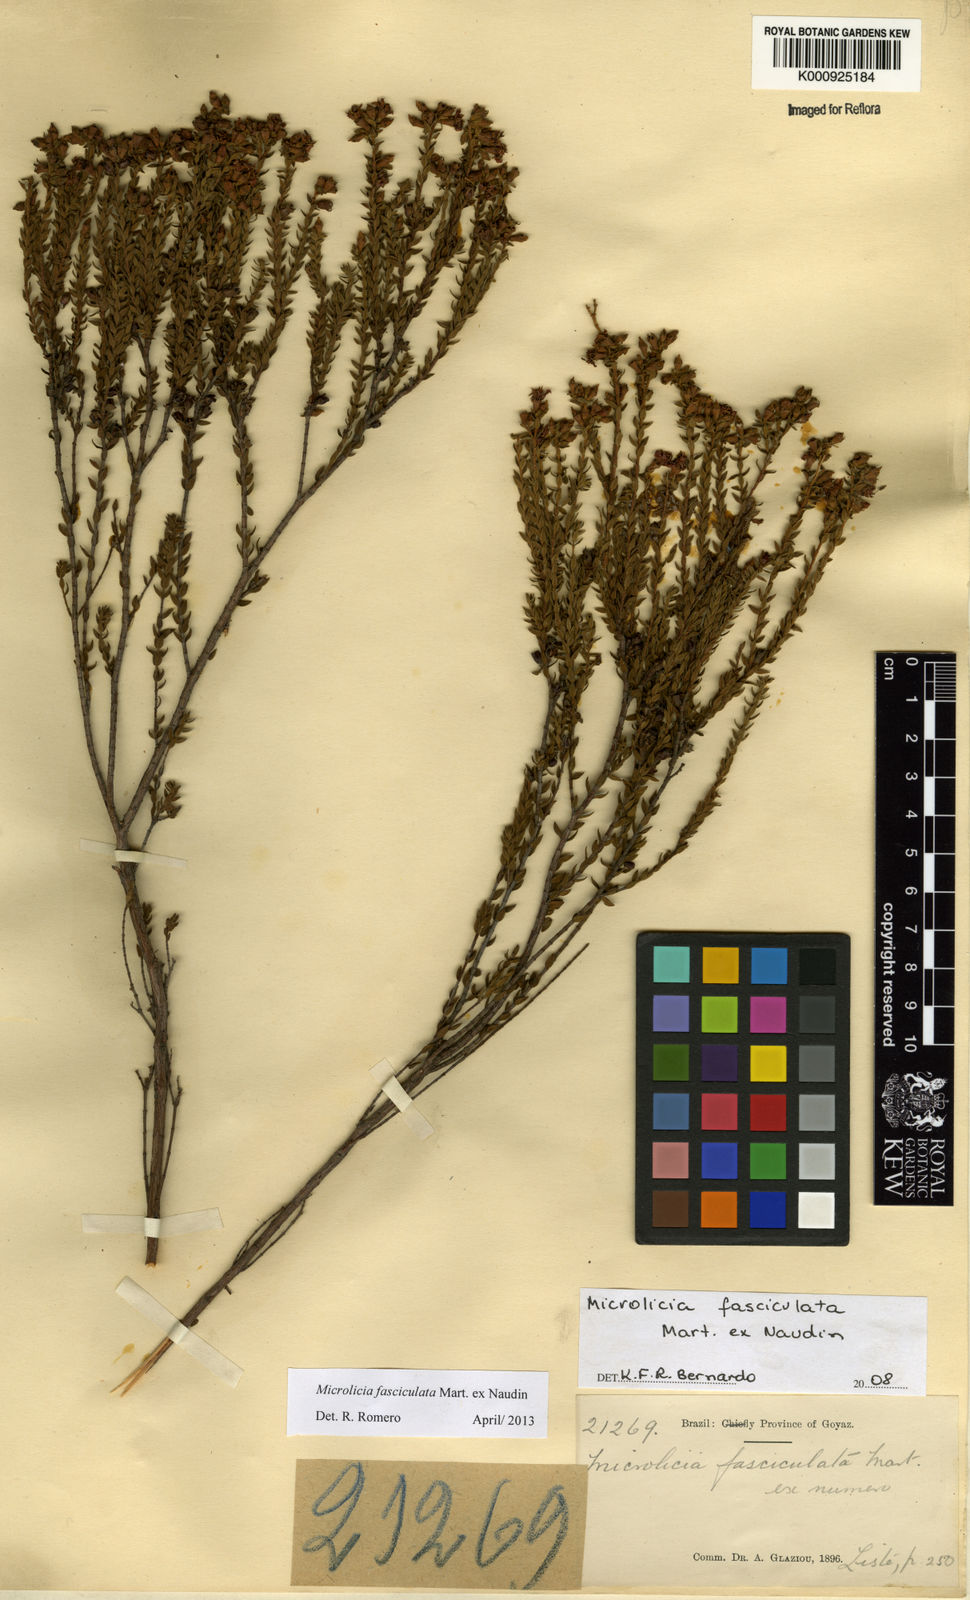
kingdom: Plantae
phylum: Tracheophyta
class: Magnoliopsida
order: Myrtales
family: Melastomataceae
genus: Microlicia
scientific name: Microlicia fasciculata
